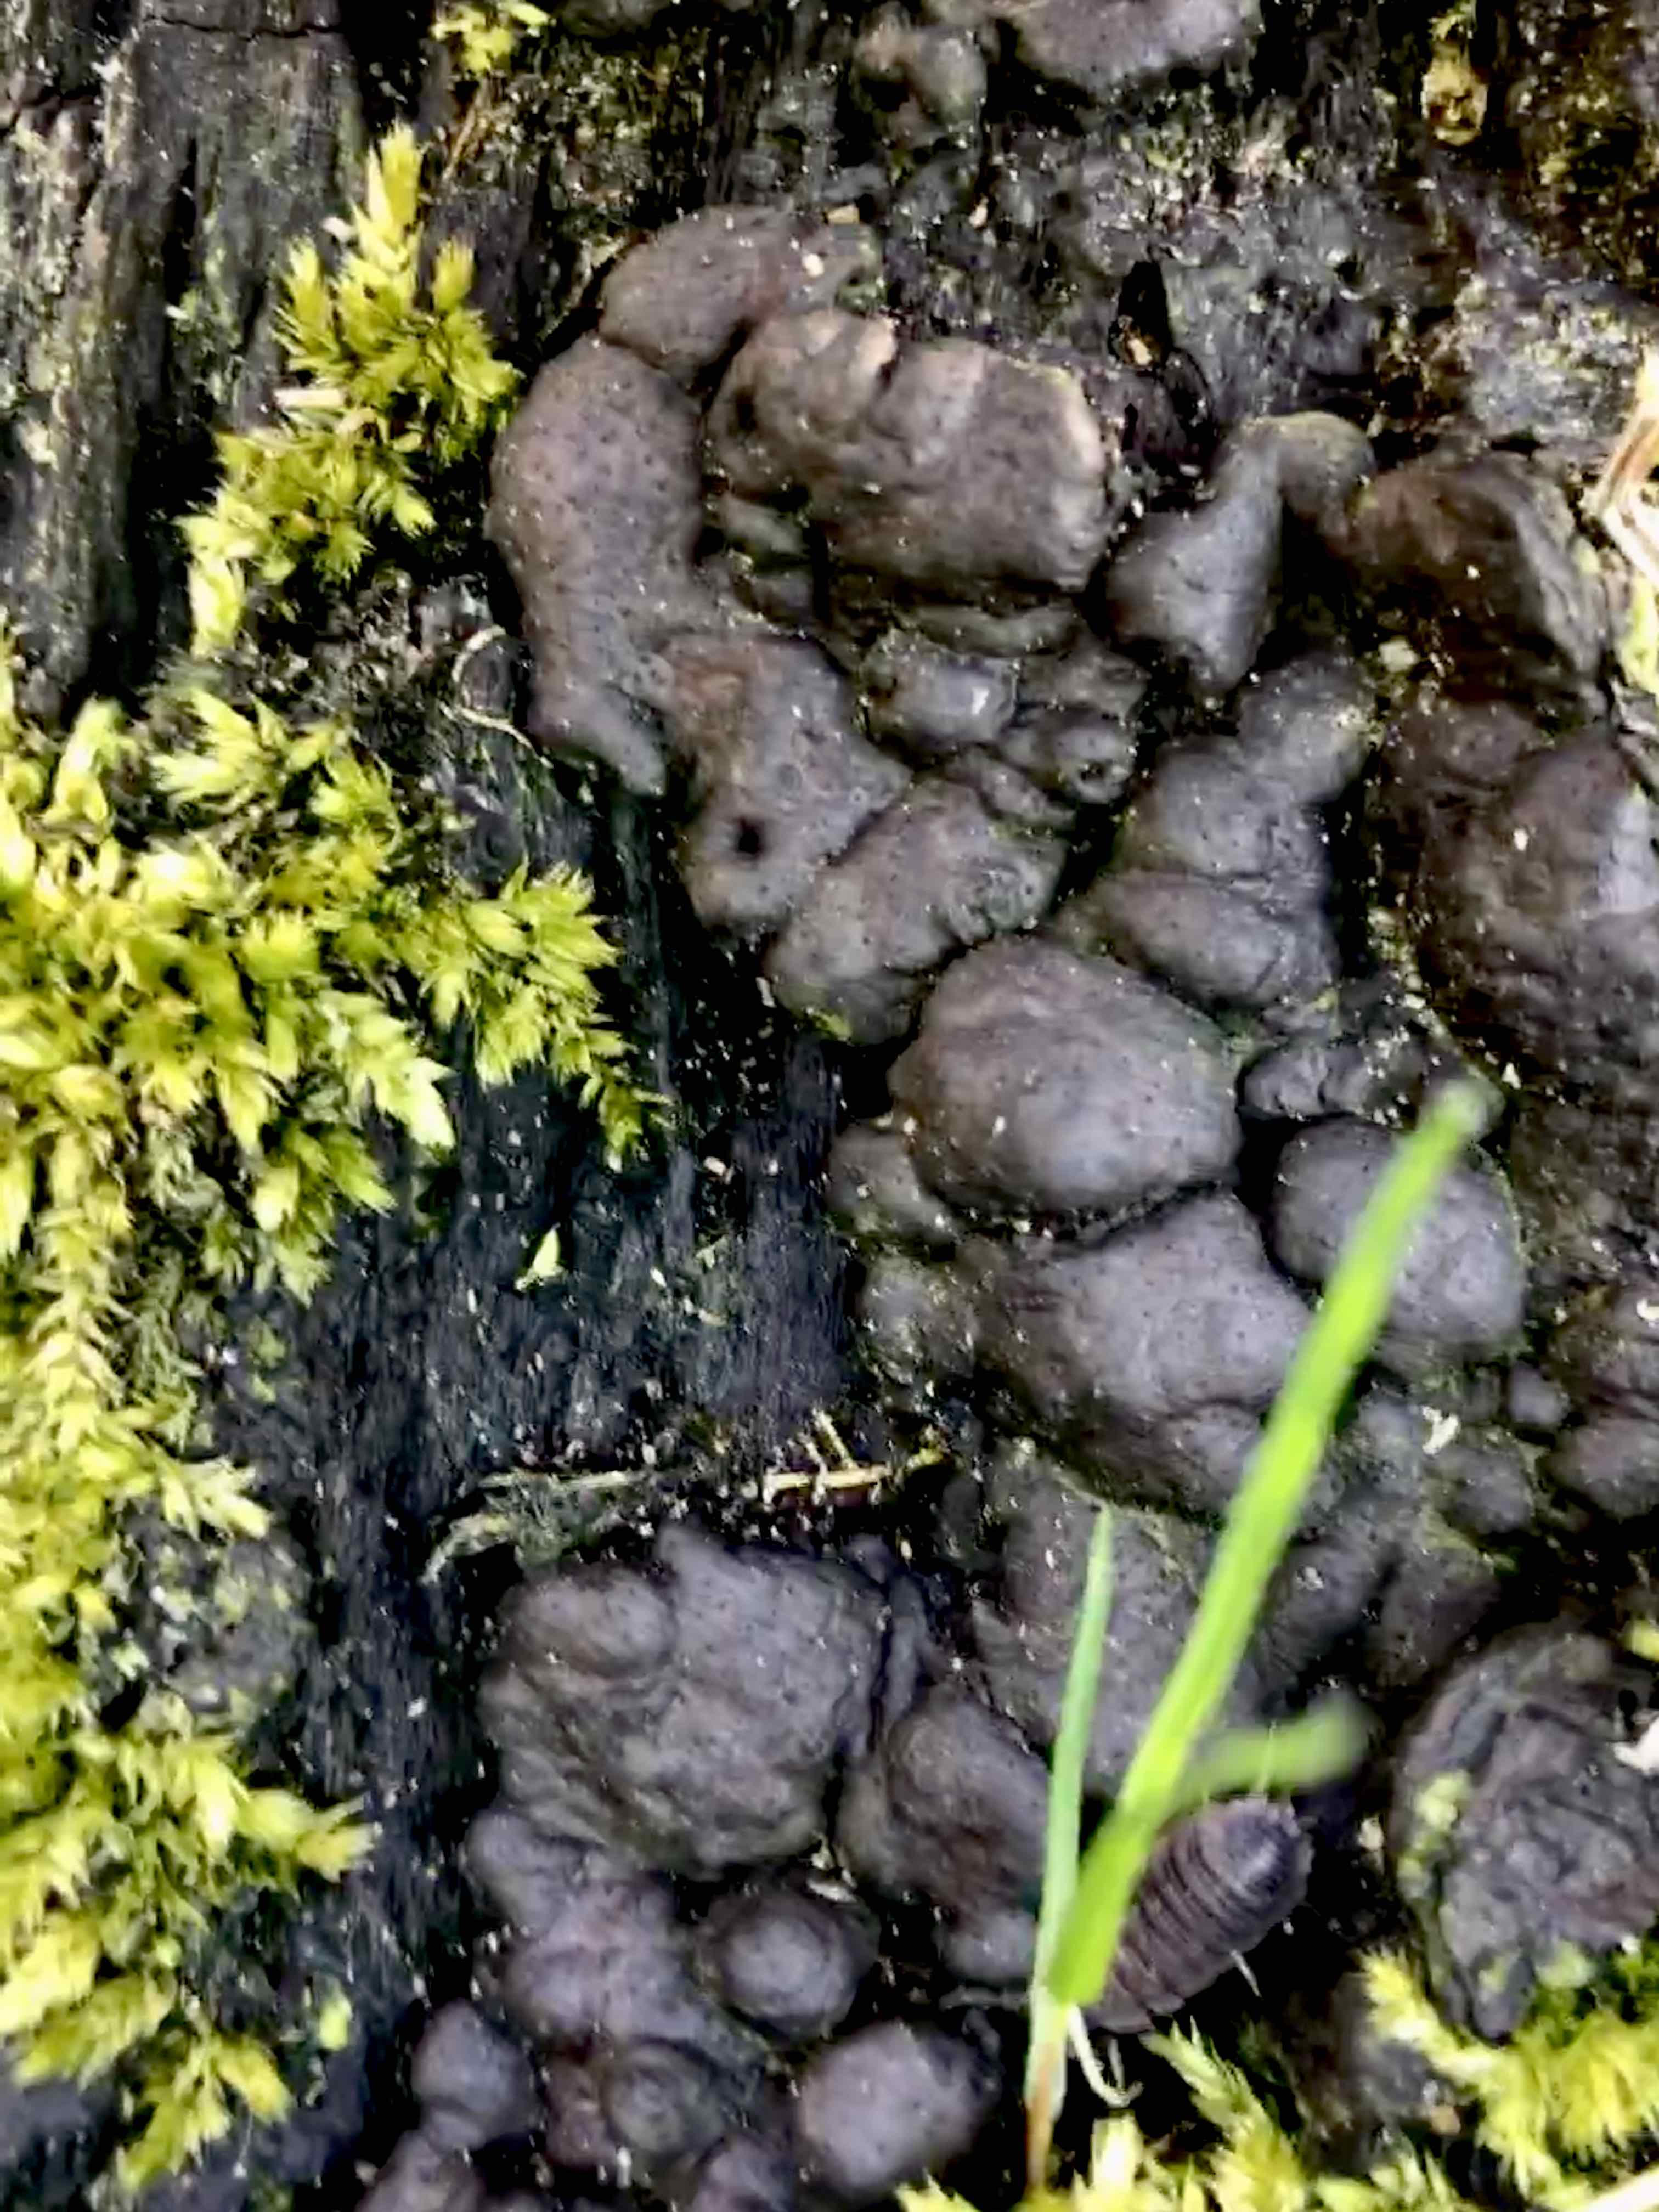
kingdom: Fungi
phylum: Ascomycota
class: Sordariomycetes
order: Xylariales
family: Xylariaceae
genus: Kretzschmaria
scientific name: Kretzschmaria deusta
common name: stor kulsvamp
